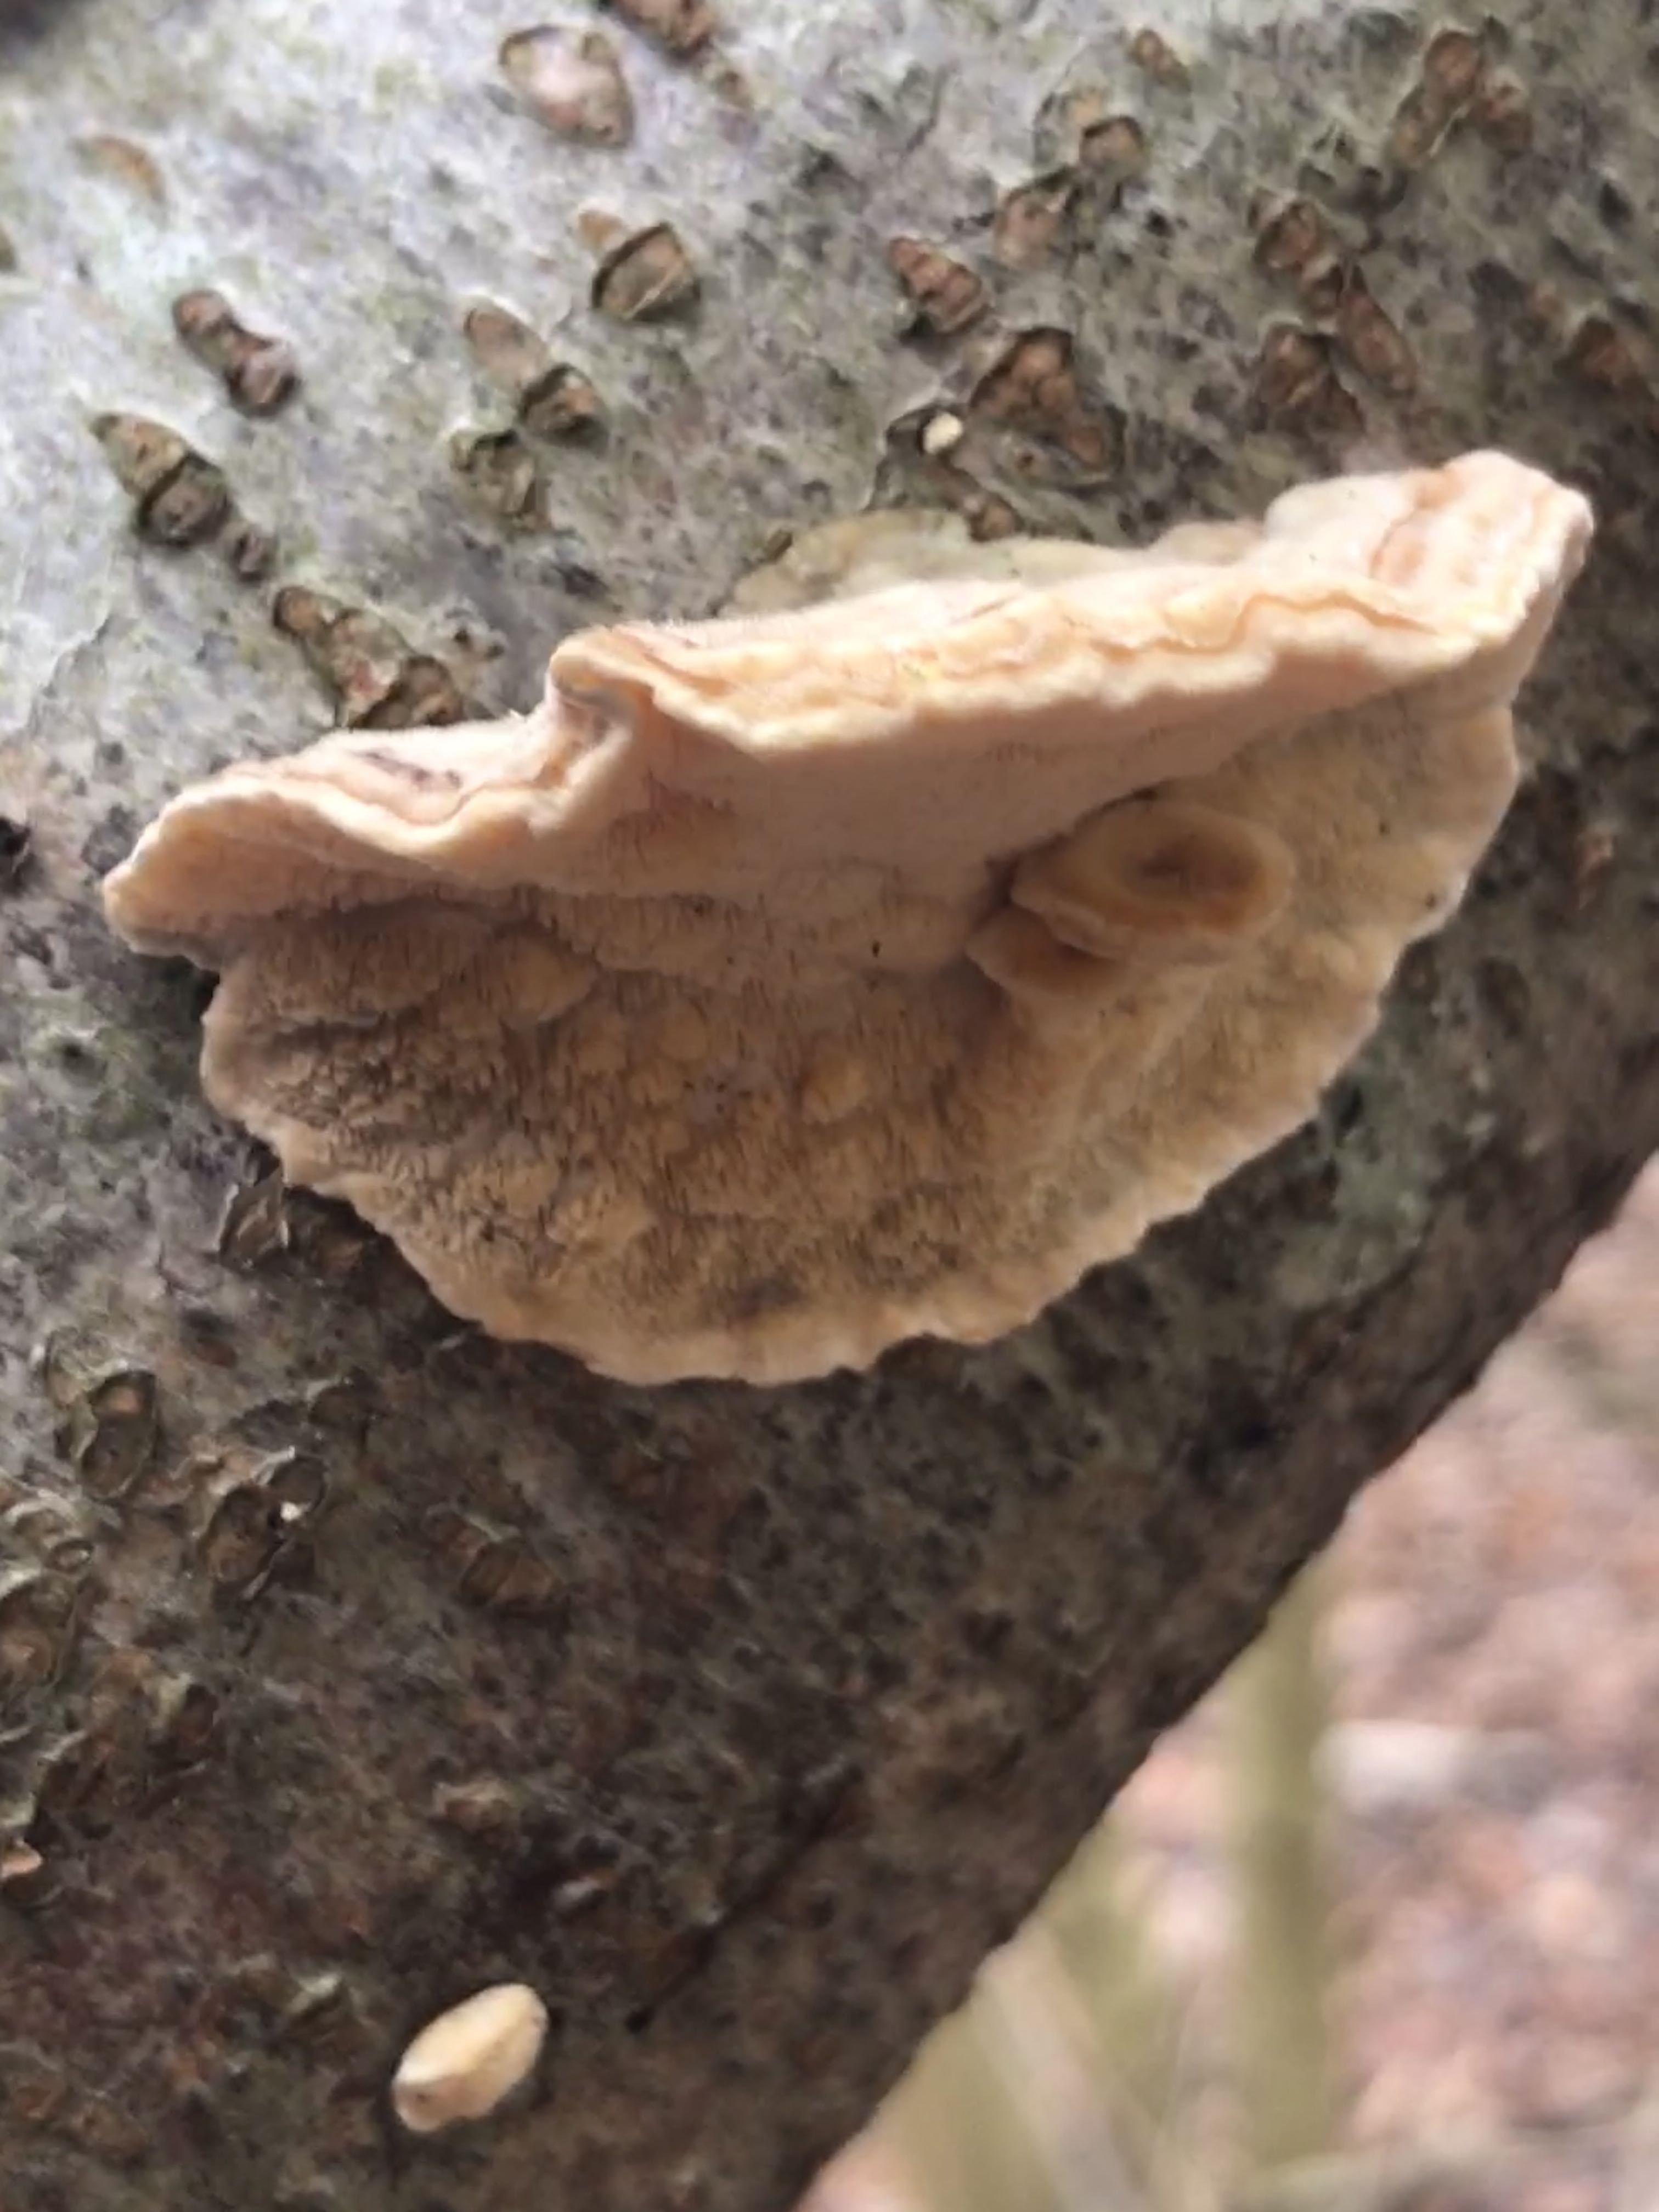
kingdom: Fungi
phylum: Basidiomycota
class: Agaricomycetes
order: Polyporales
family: Polyporaceae
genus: Trametes
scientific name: Trametes ochracea
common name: bæltet læderporesvamp
